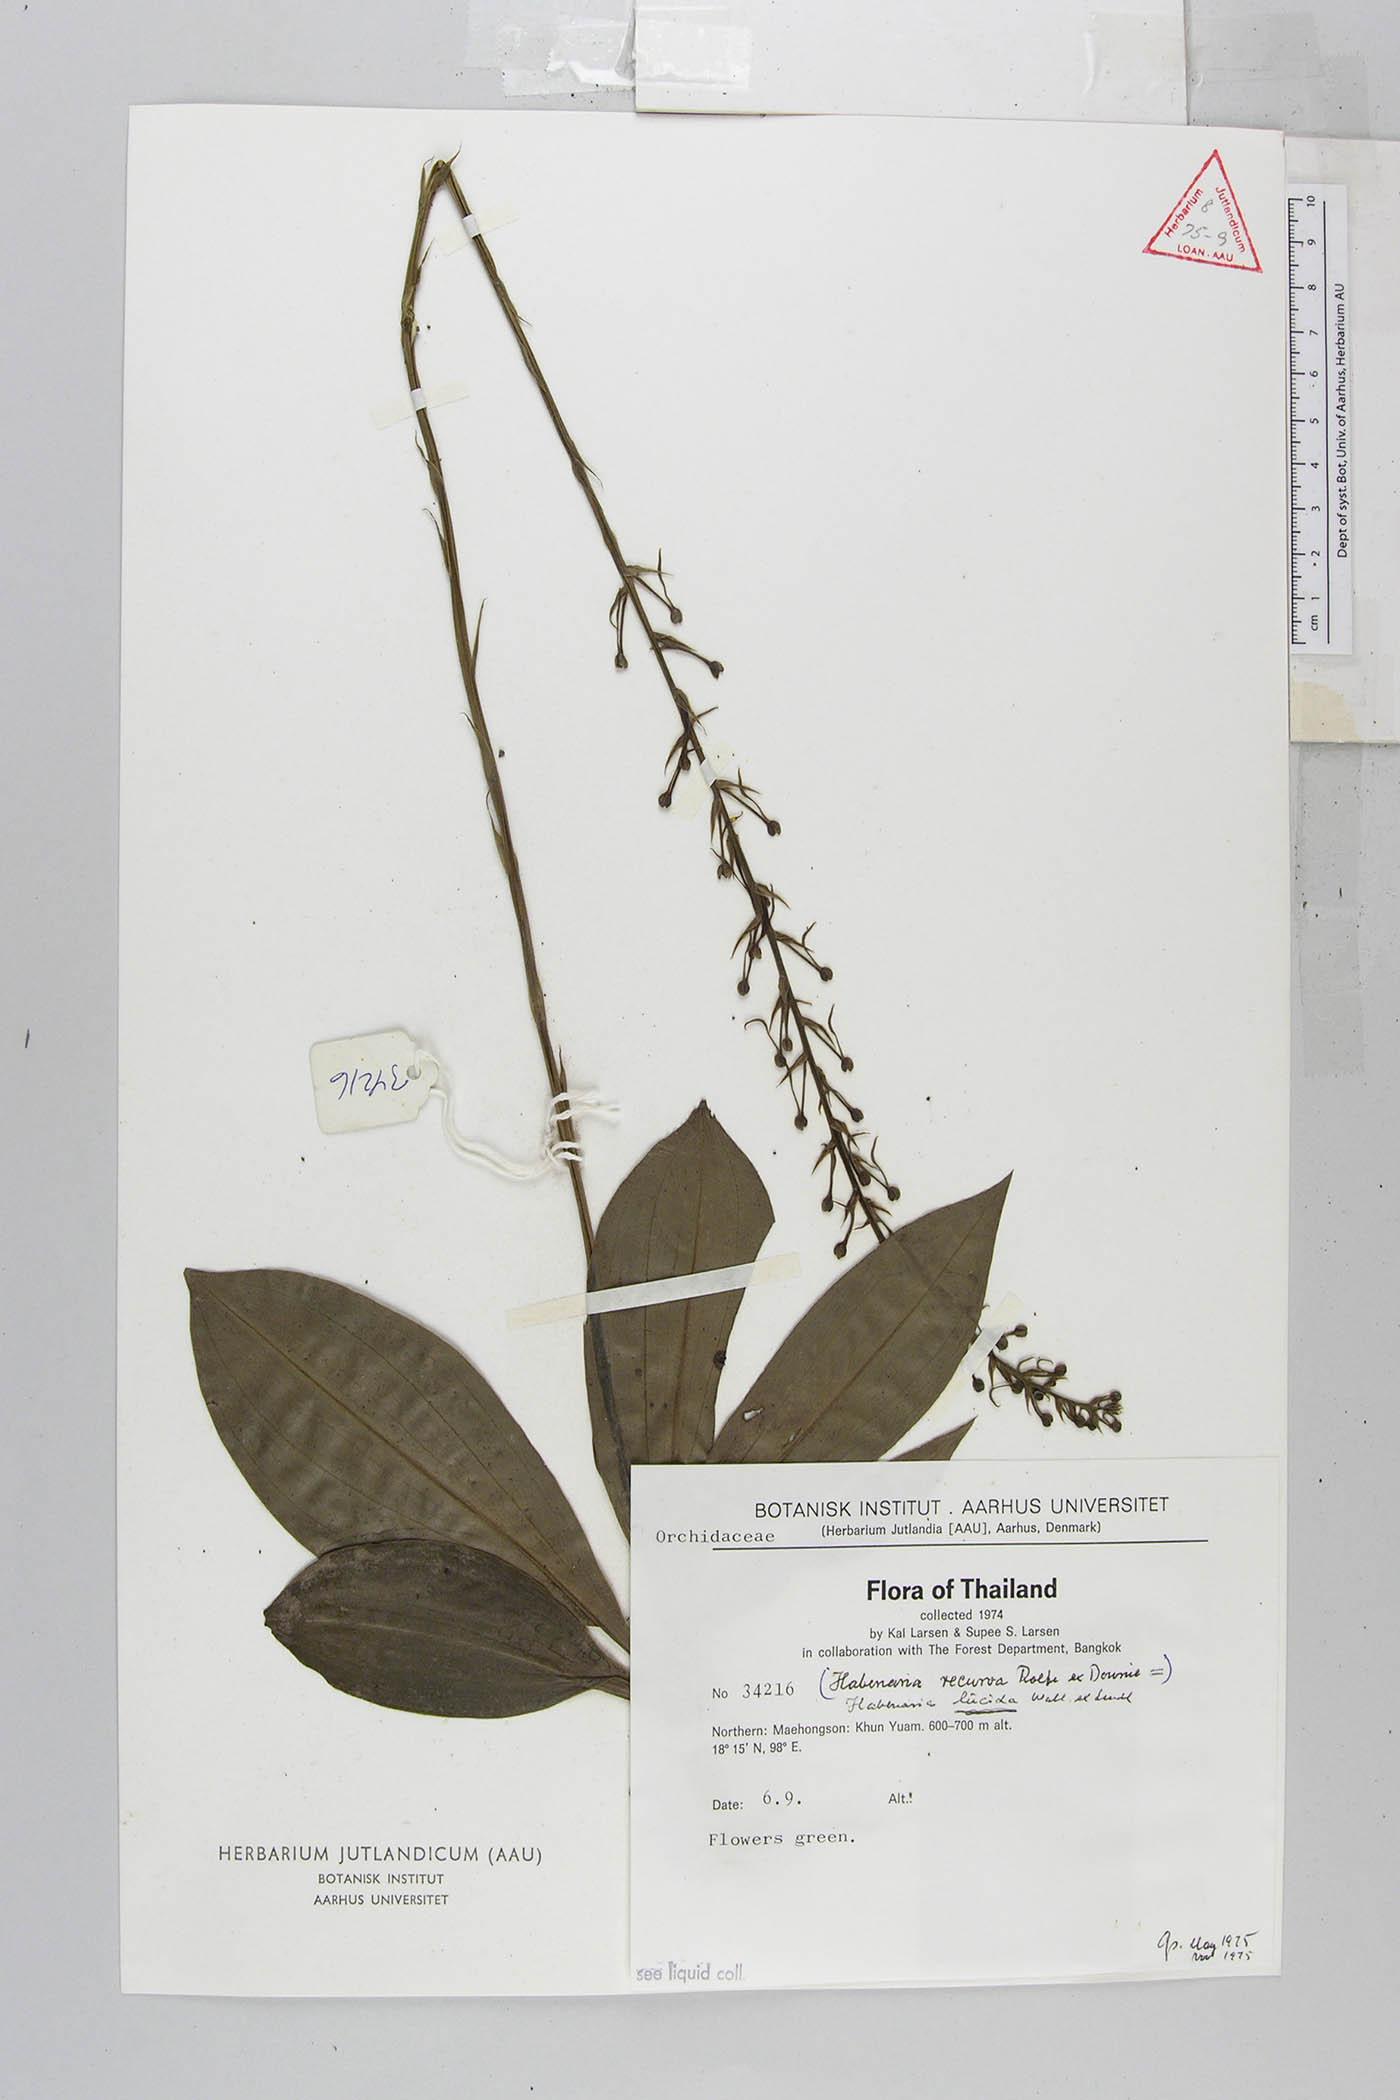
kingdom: Plantae
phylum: Tracheophyta
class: Liliopsida
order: Asparagales
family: Orchidaceae
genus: Habenaria
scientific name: Habenaria lucida
